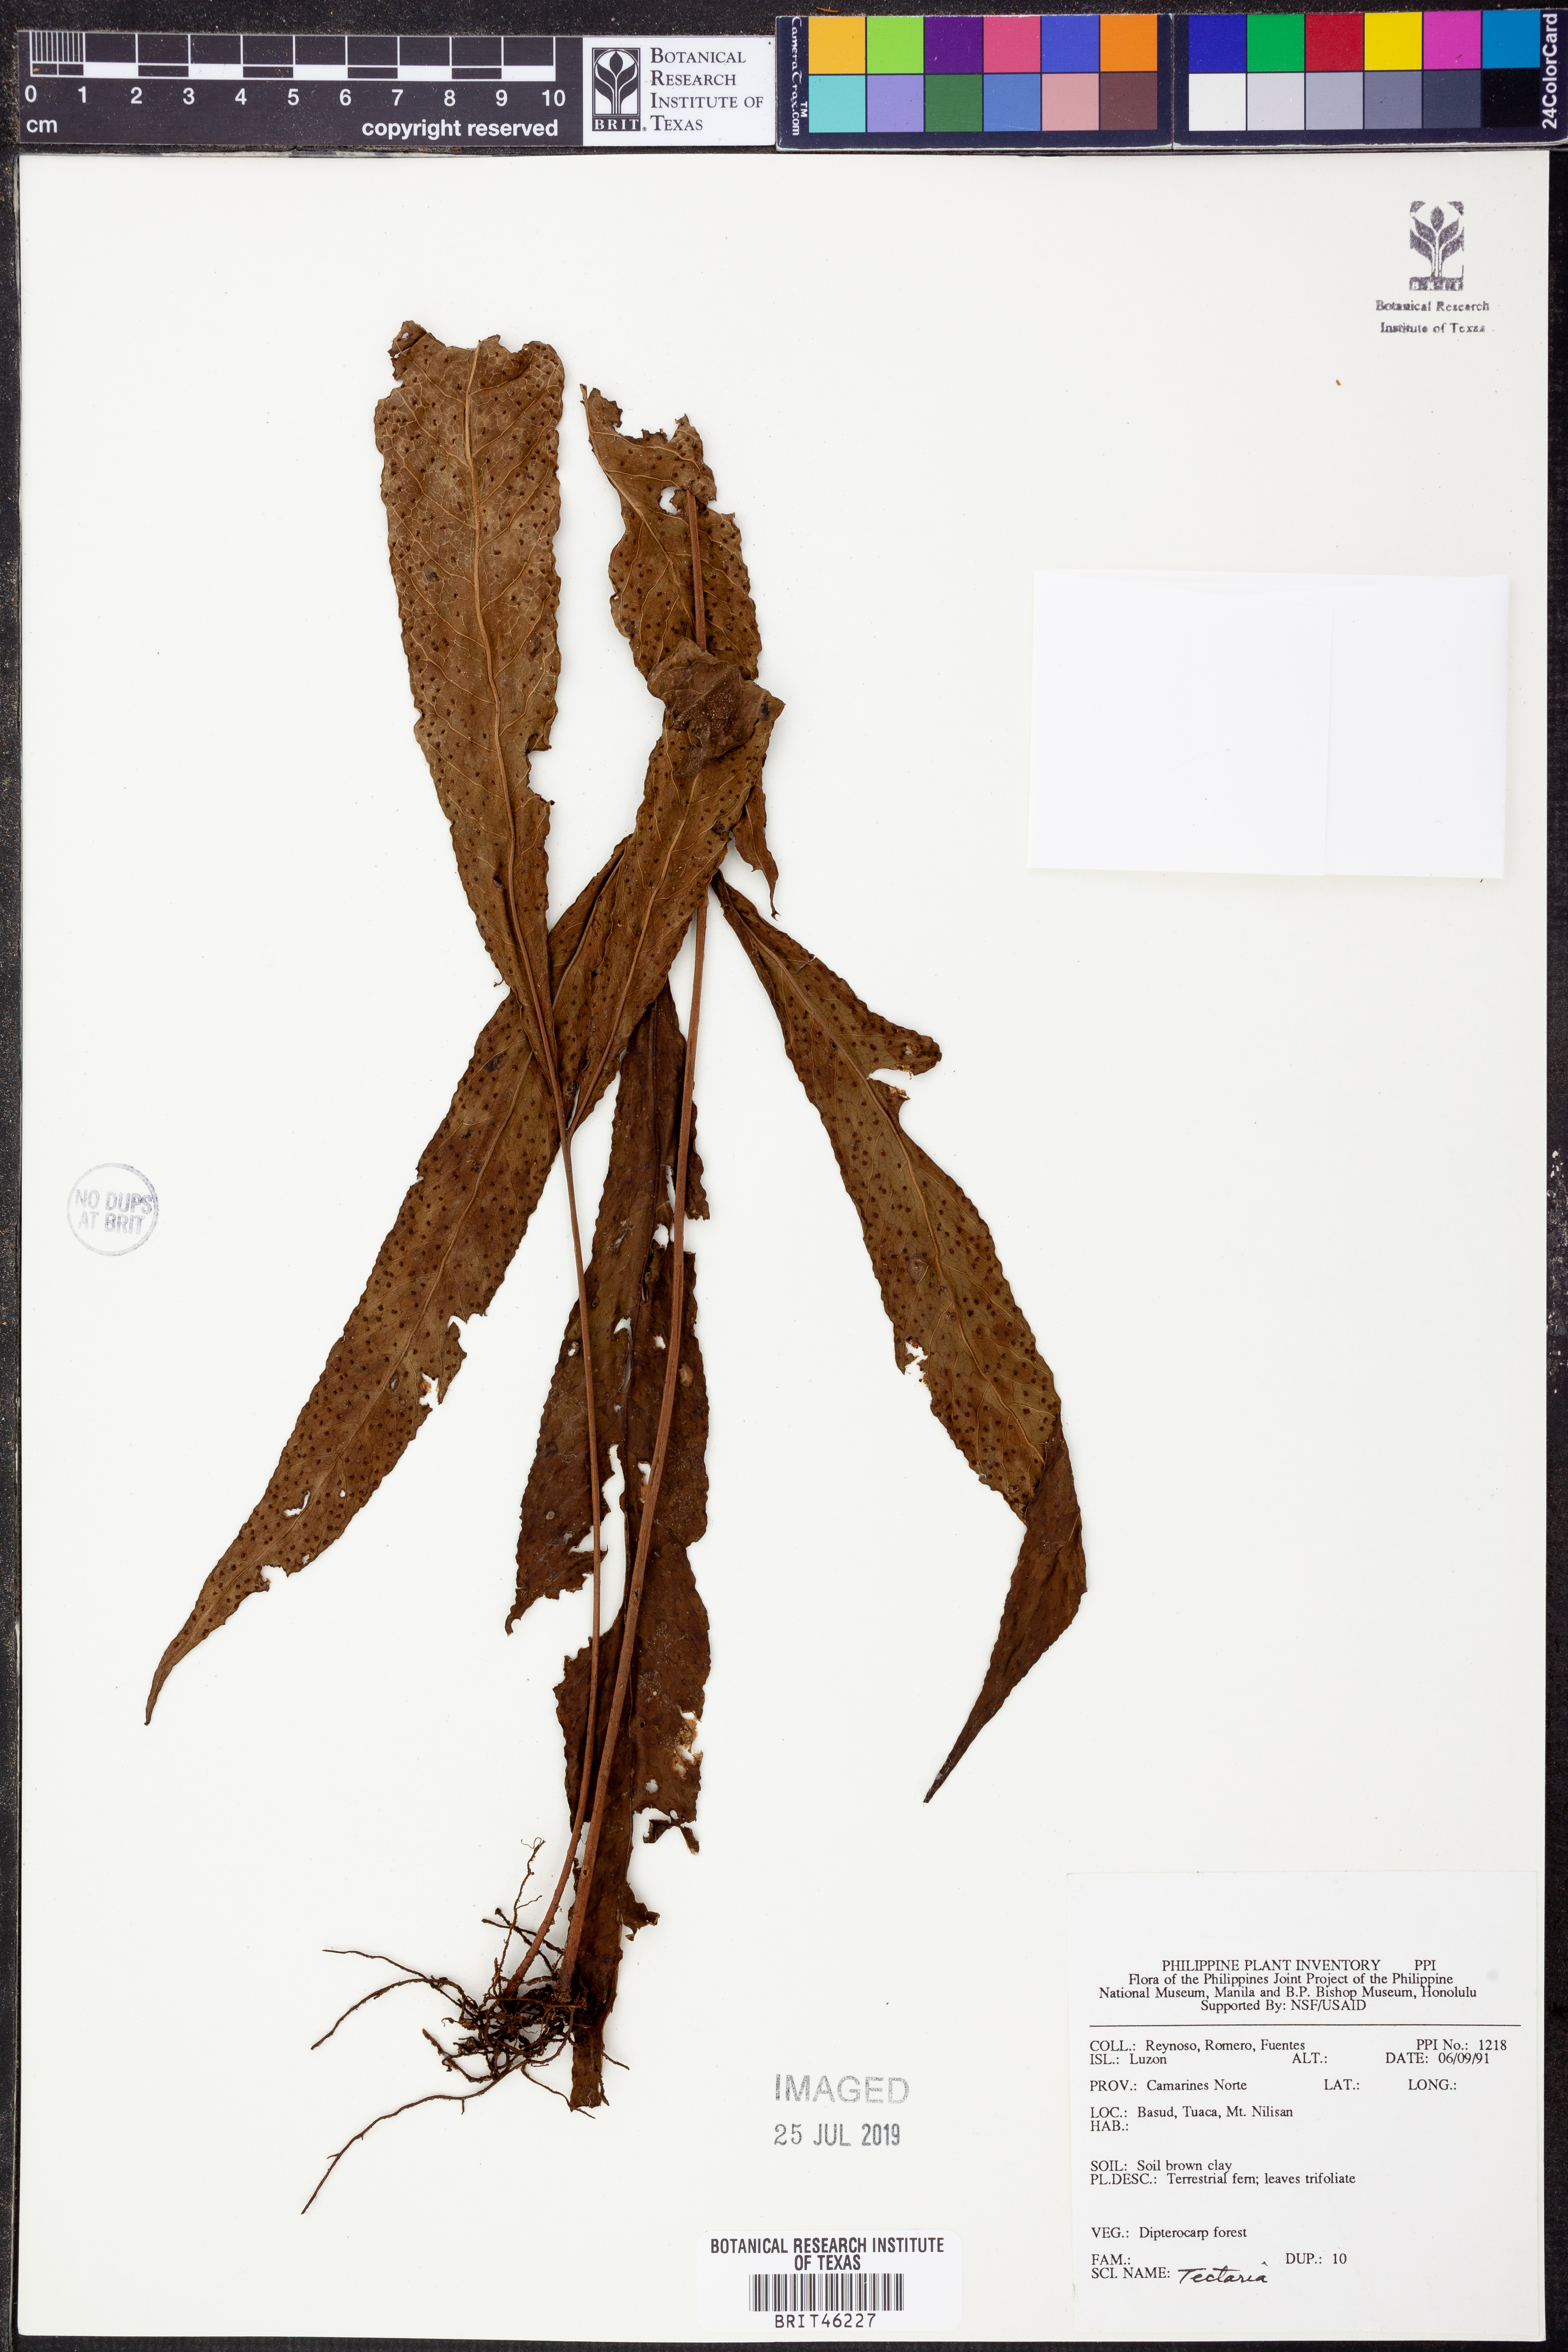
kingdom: Plantae
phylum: Tracheophyta
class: Polypodiopsida
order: Polypodiales
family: Tectariaceae
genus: Tectaria
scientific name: Tectaria
